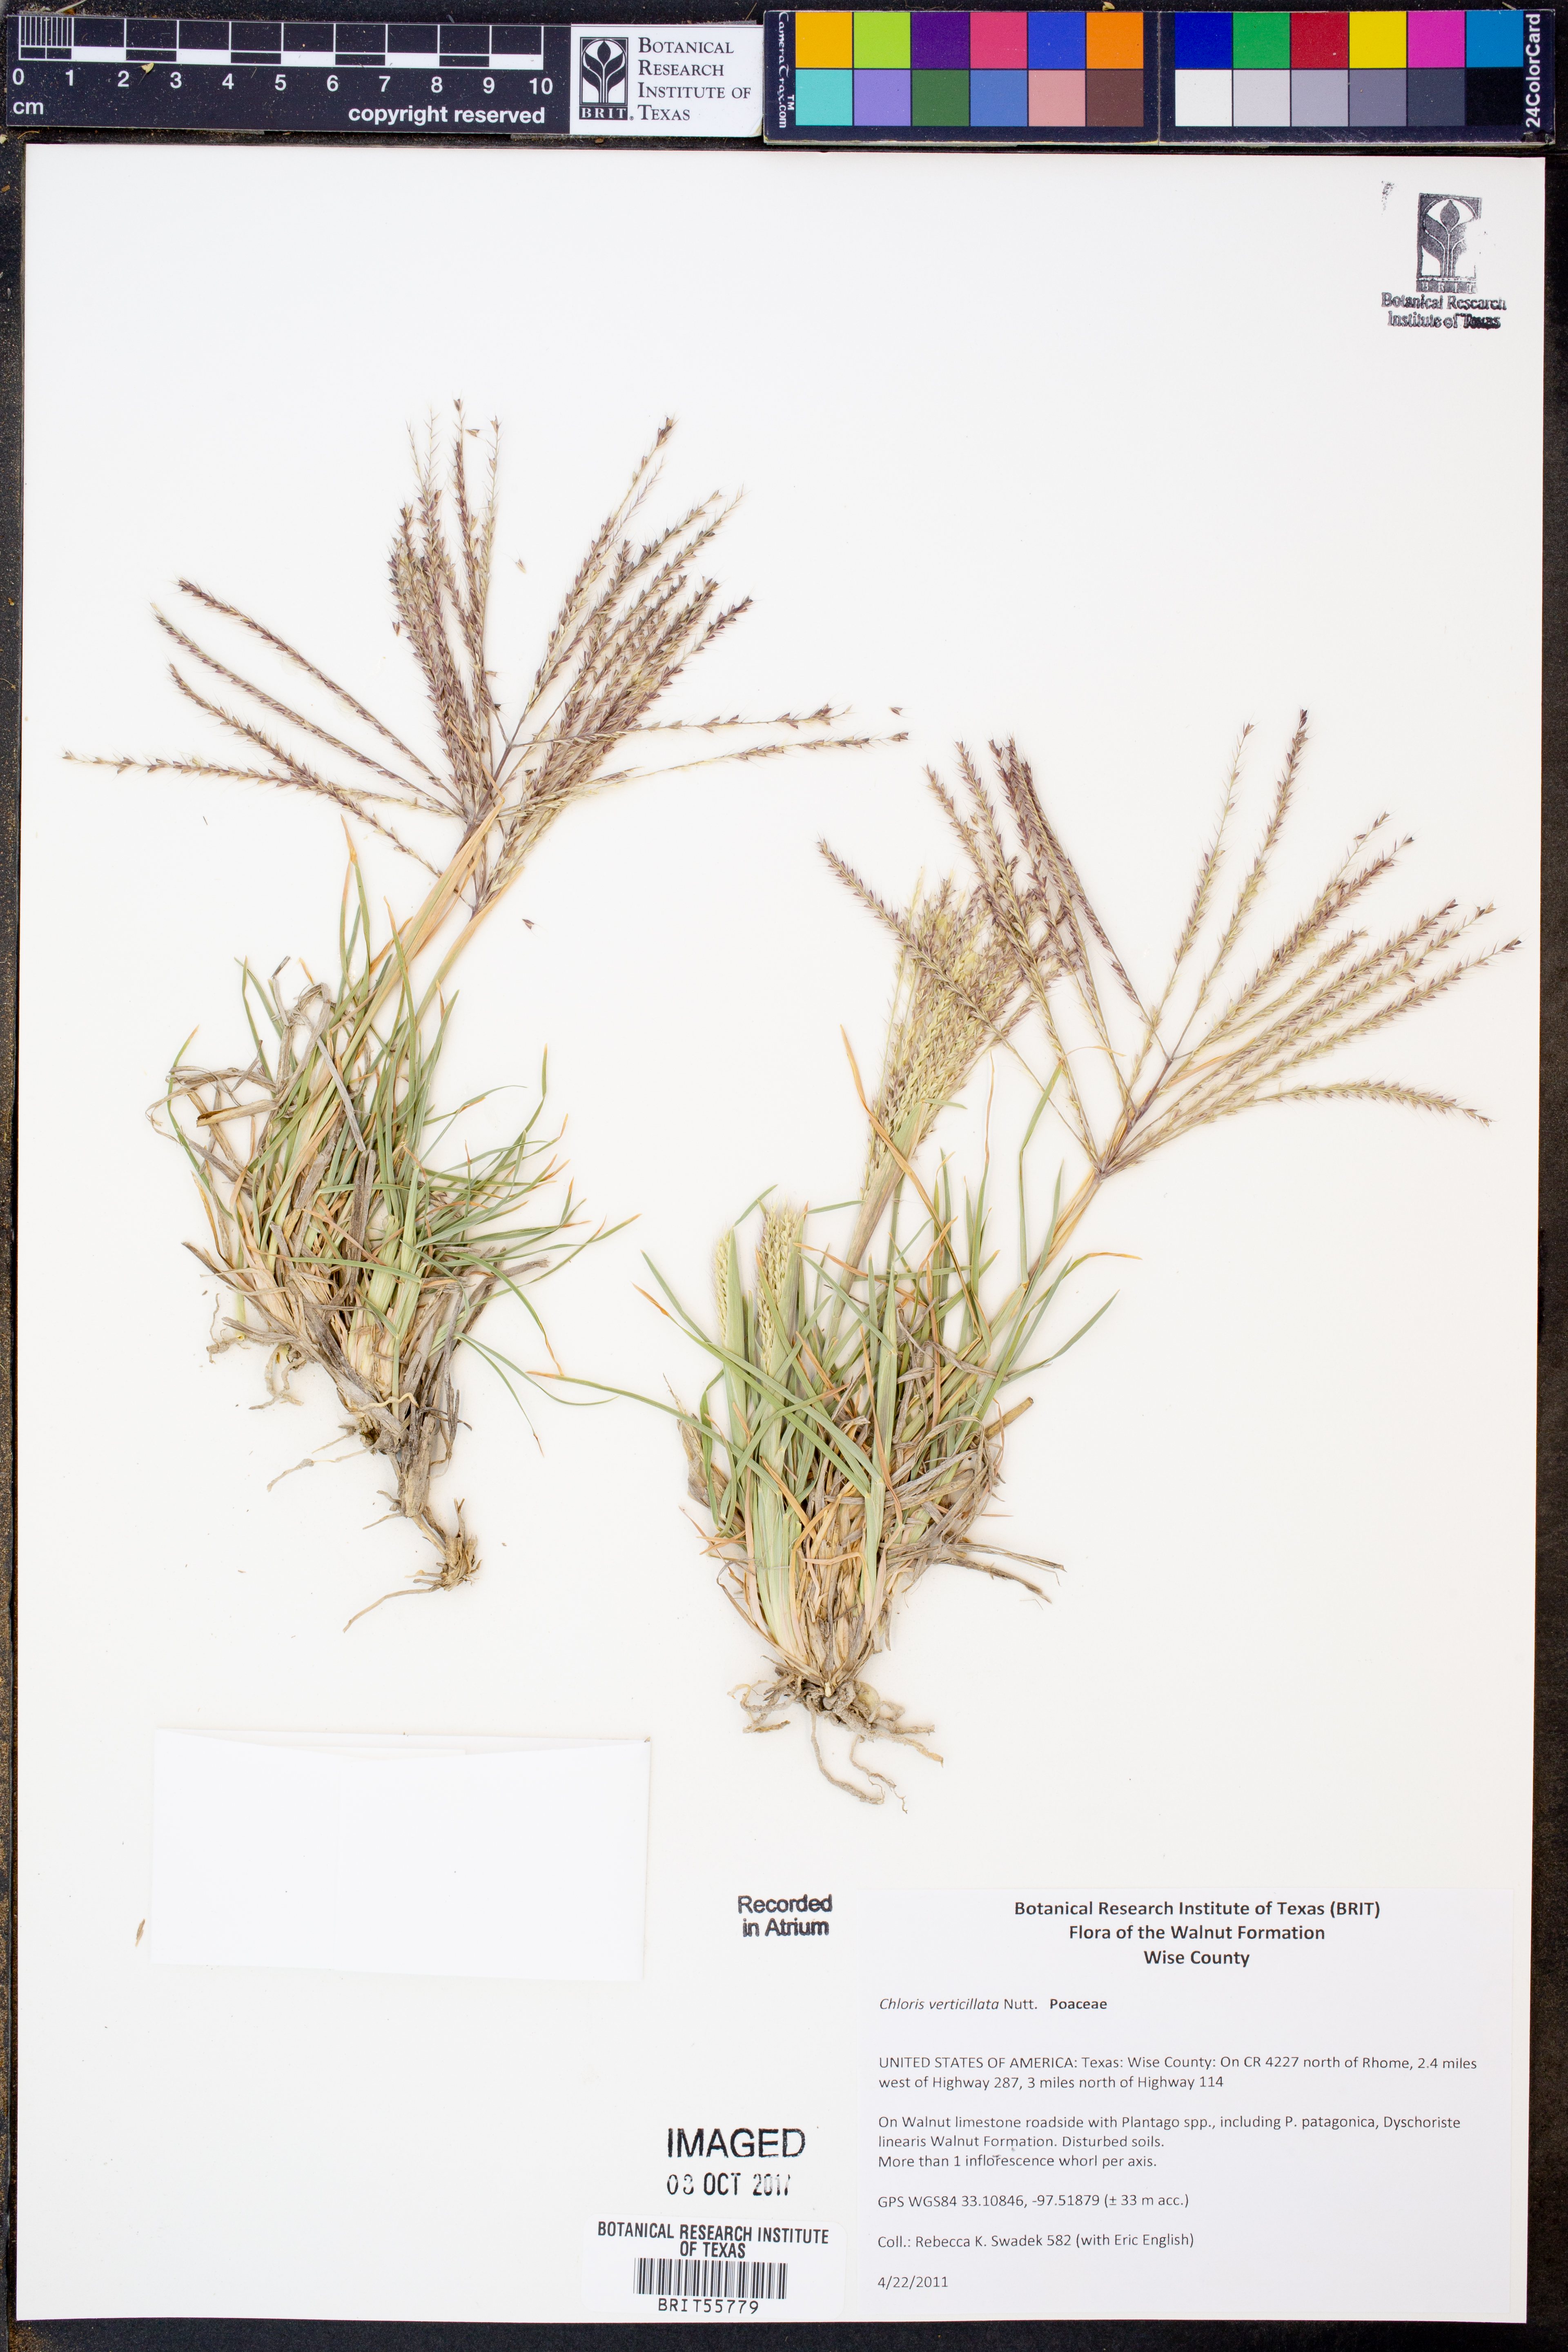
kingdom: Plantae
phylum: Tracheophyta
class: Liliopsida
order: Poales
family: Poaceae
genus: Chloris
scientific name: Chloris verticillata
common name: Tumble windmill grass
